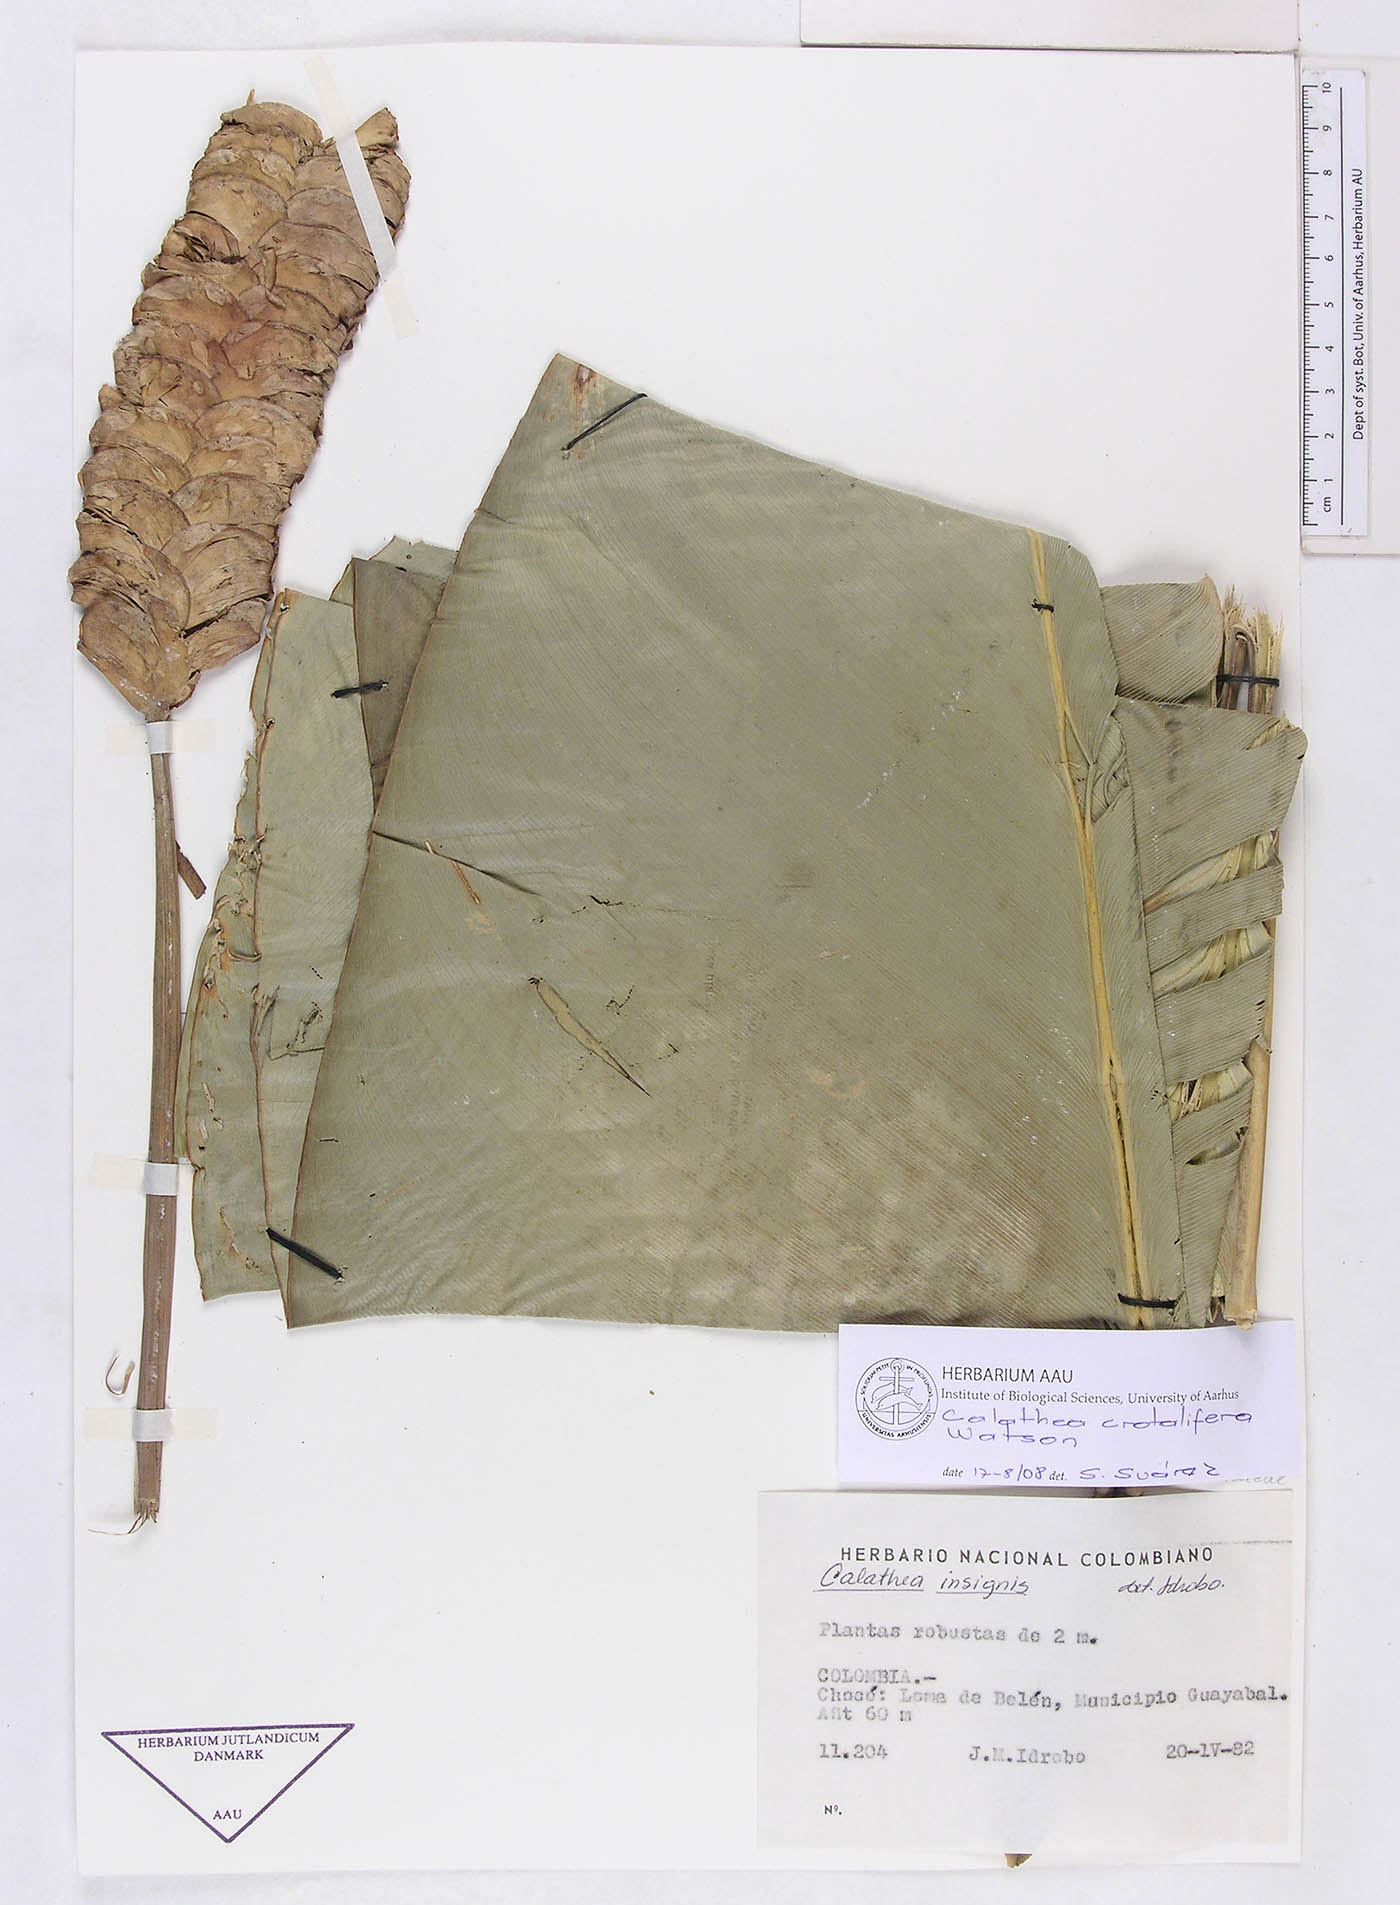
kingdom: Plantae
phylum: Tracheophyta
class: Liliopsida
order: Zingiberales
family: Marantaceae
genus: Calathea
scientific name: Calathea crotalifera
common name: Rattlesnake plant
